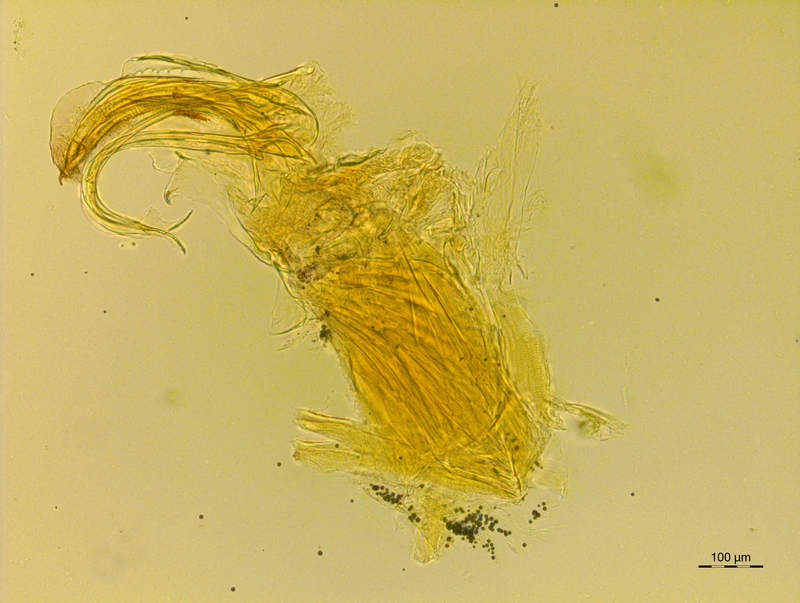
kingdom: Animalia
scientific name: Animalia
